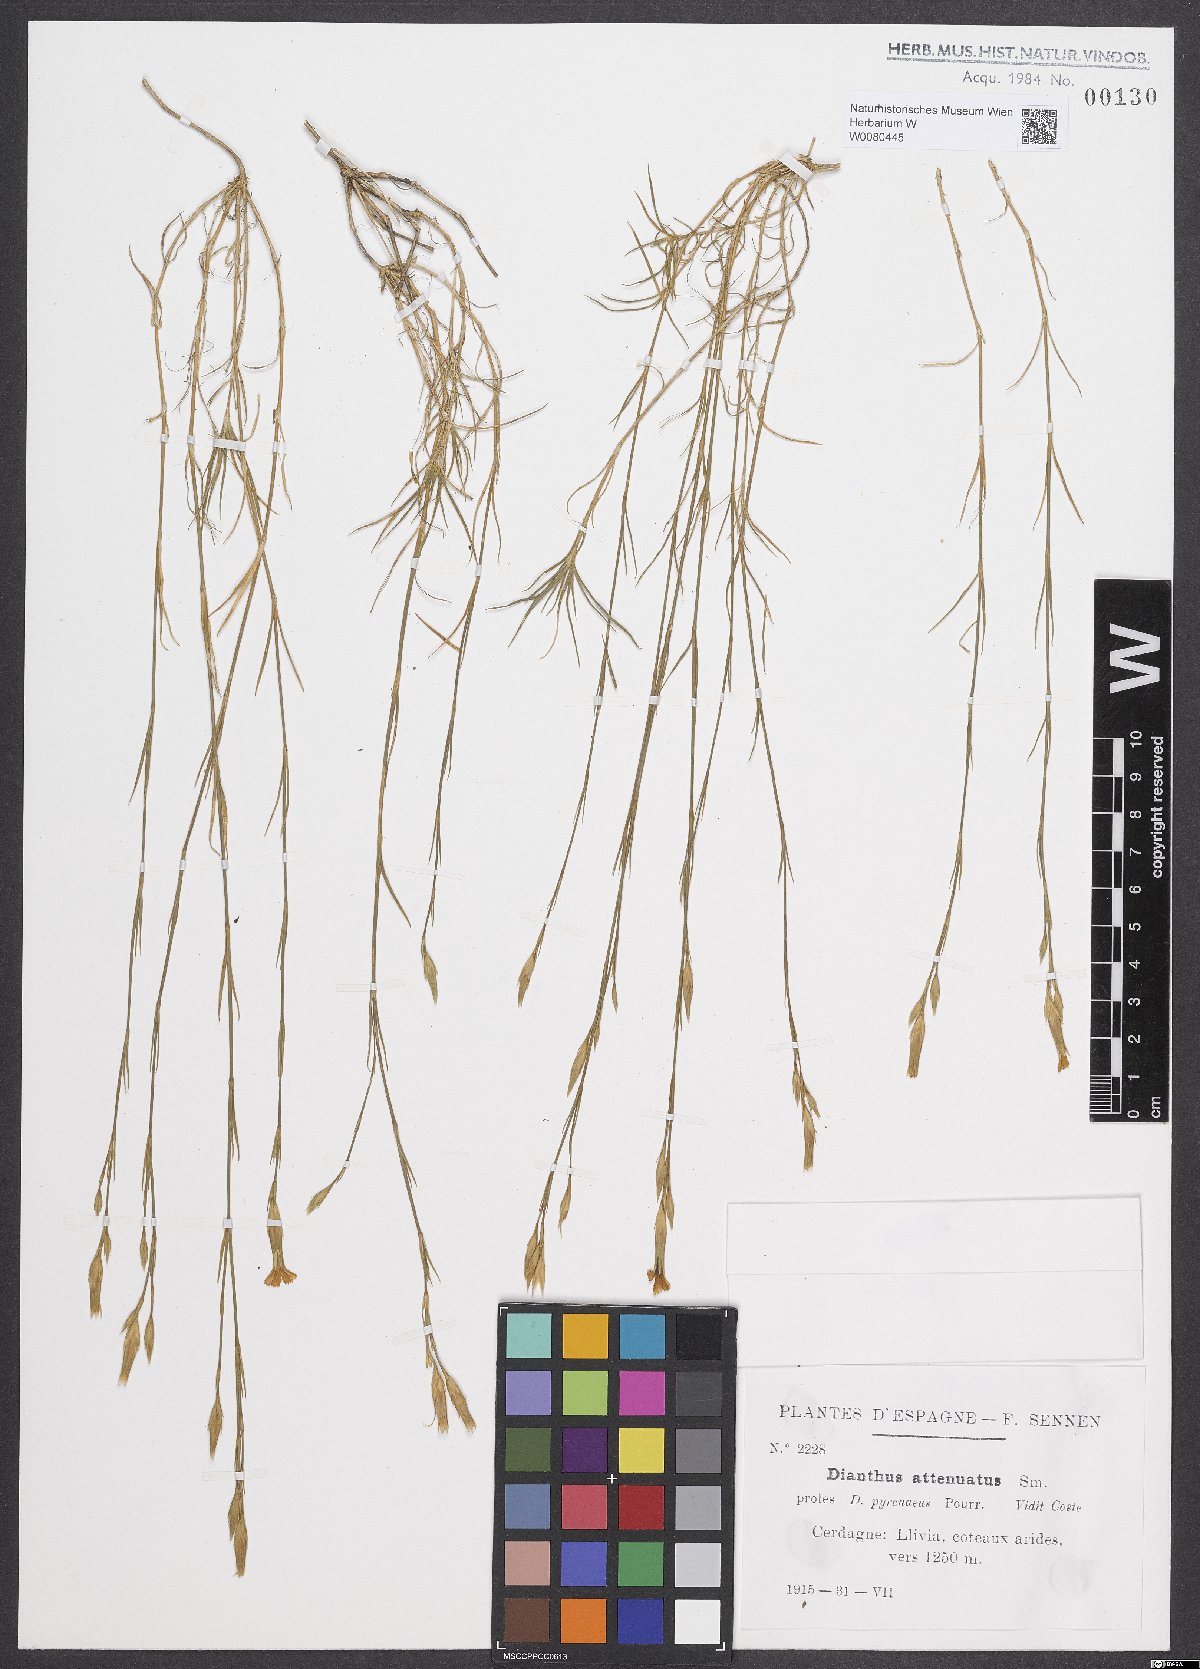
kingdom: Plantae
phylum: Tracheophyta
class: Magnoliopsida
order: Caryophyllales
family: Caryophyllaceae
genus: Dianthus
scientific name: Dianthus pyrenaicus
